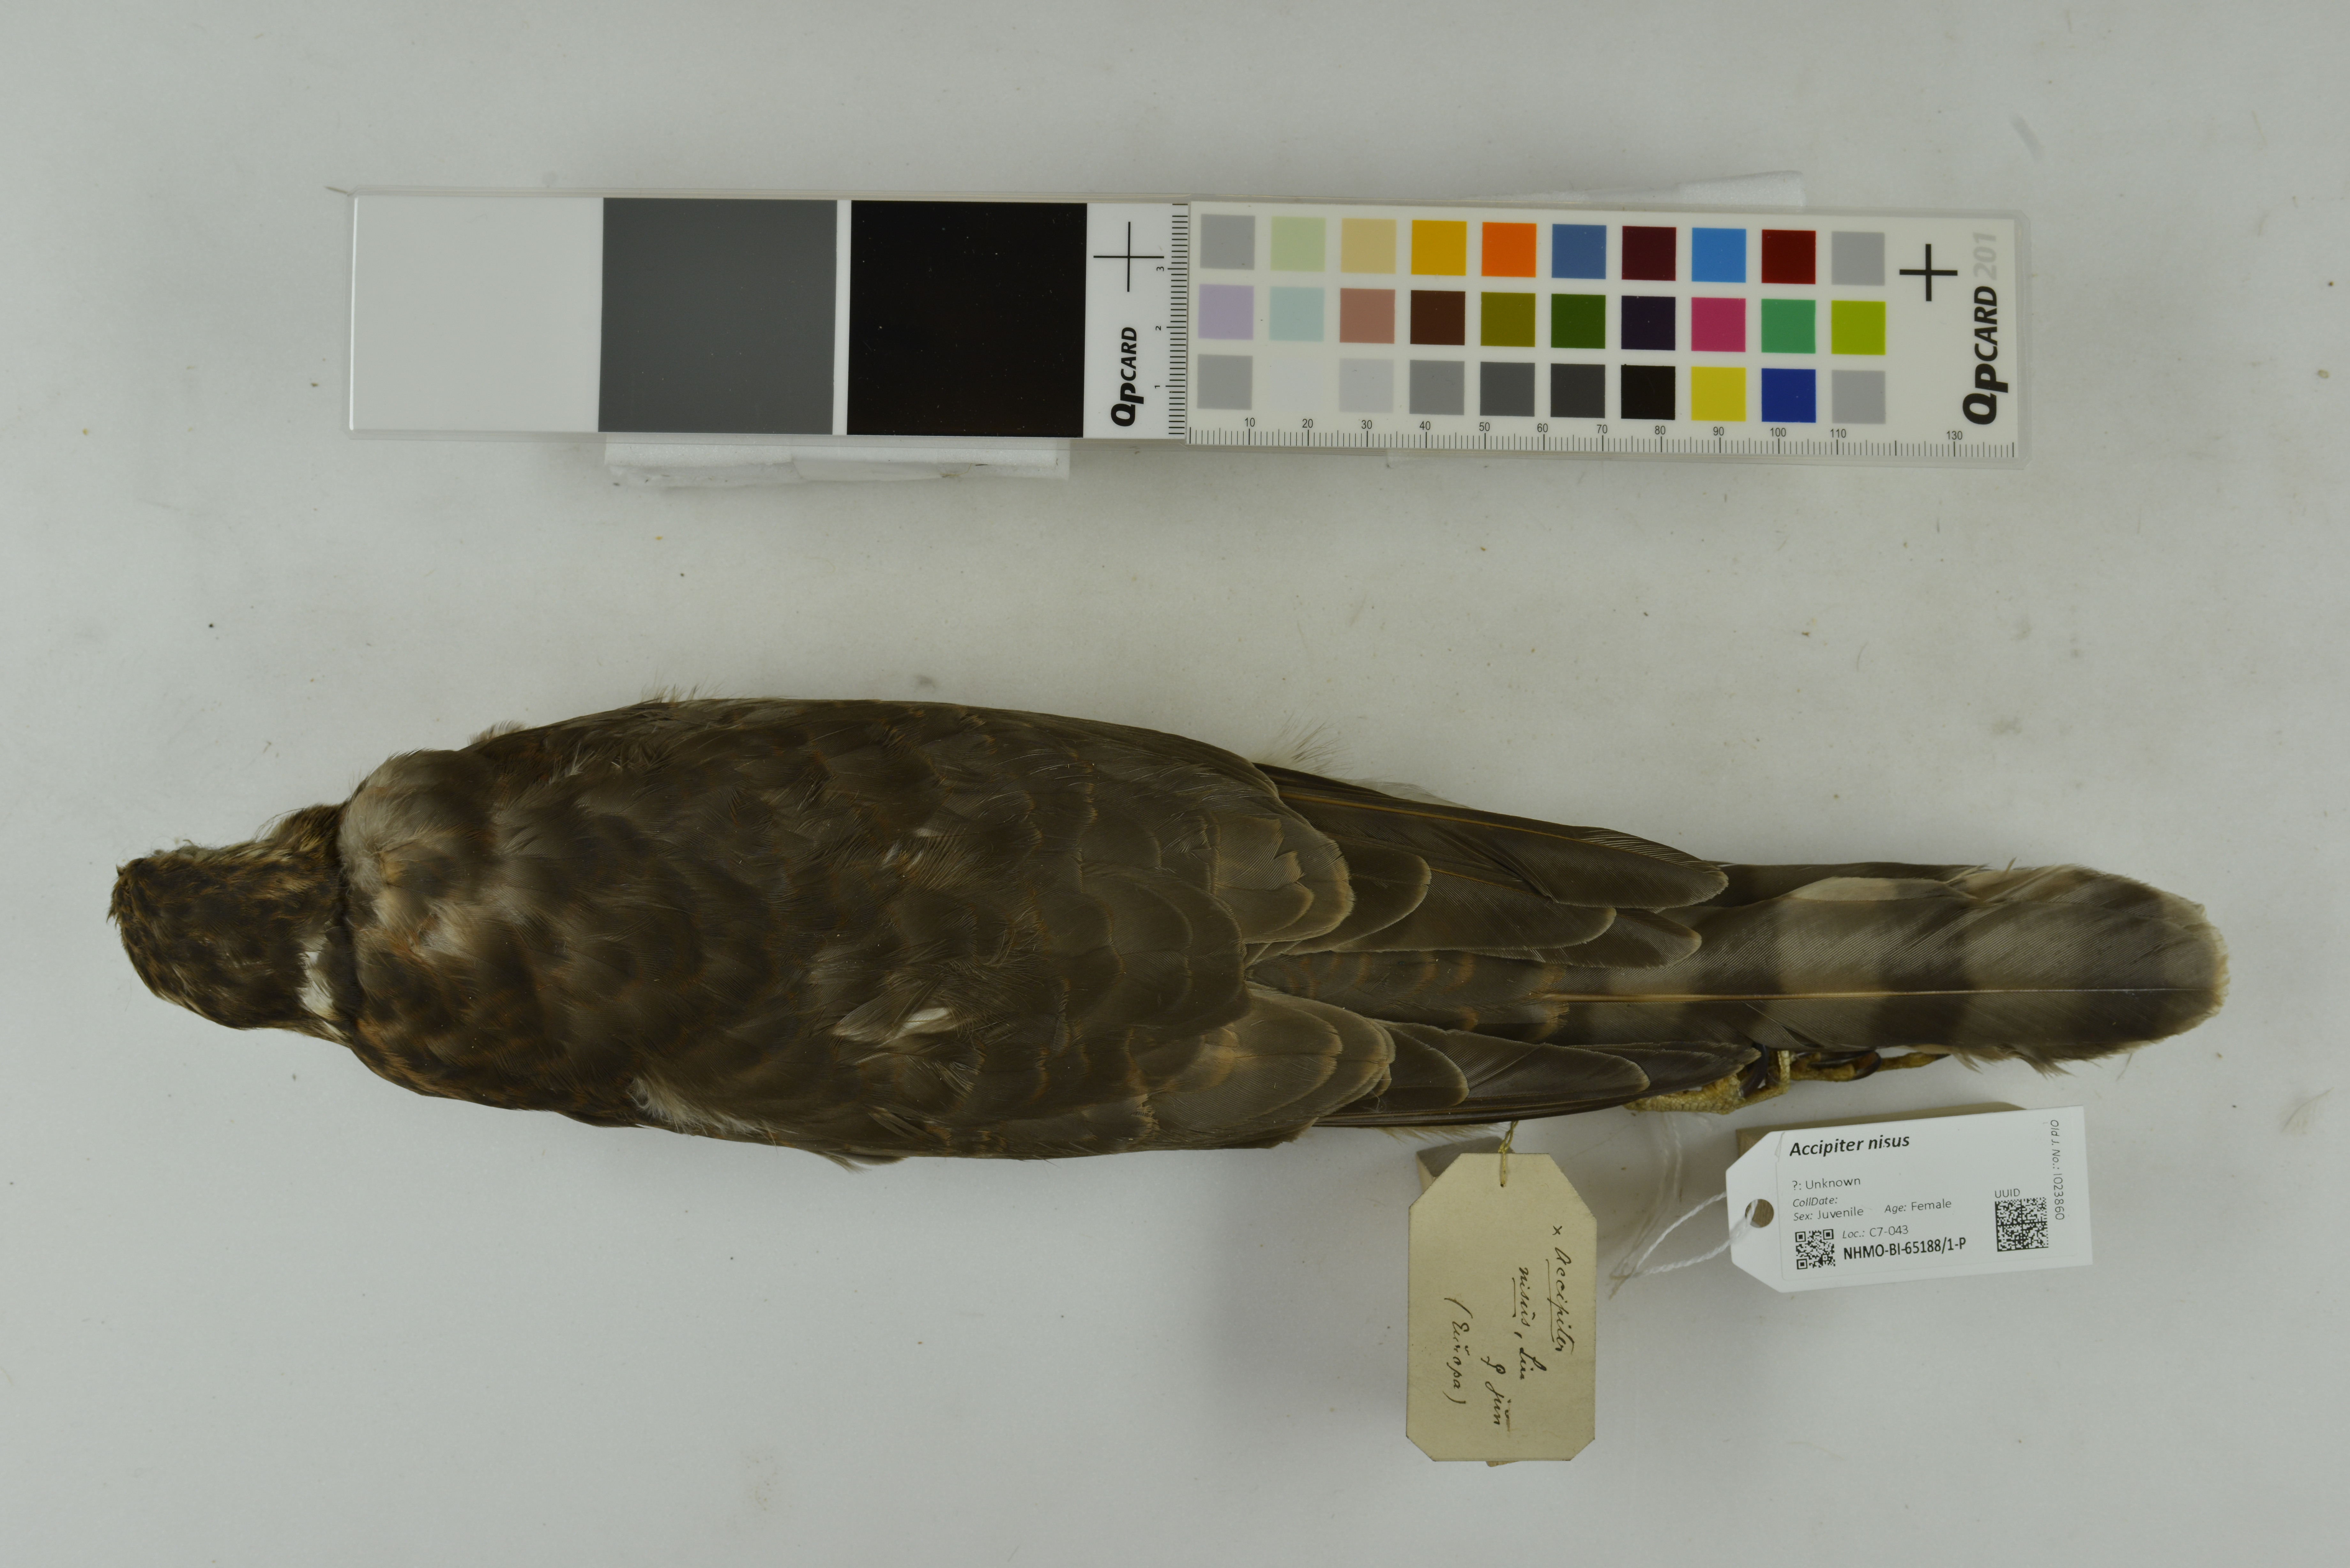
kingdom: Animalia
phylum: Chordata
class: Aves
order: Accipitriformes
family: Accipitridae
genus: Accipiter
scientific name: Accipiter nisus
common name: Eurasian sparrowhawk
